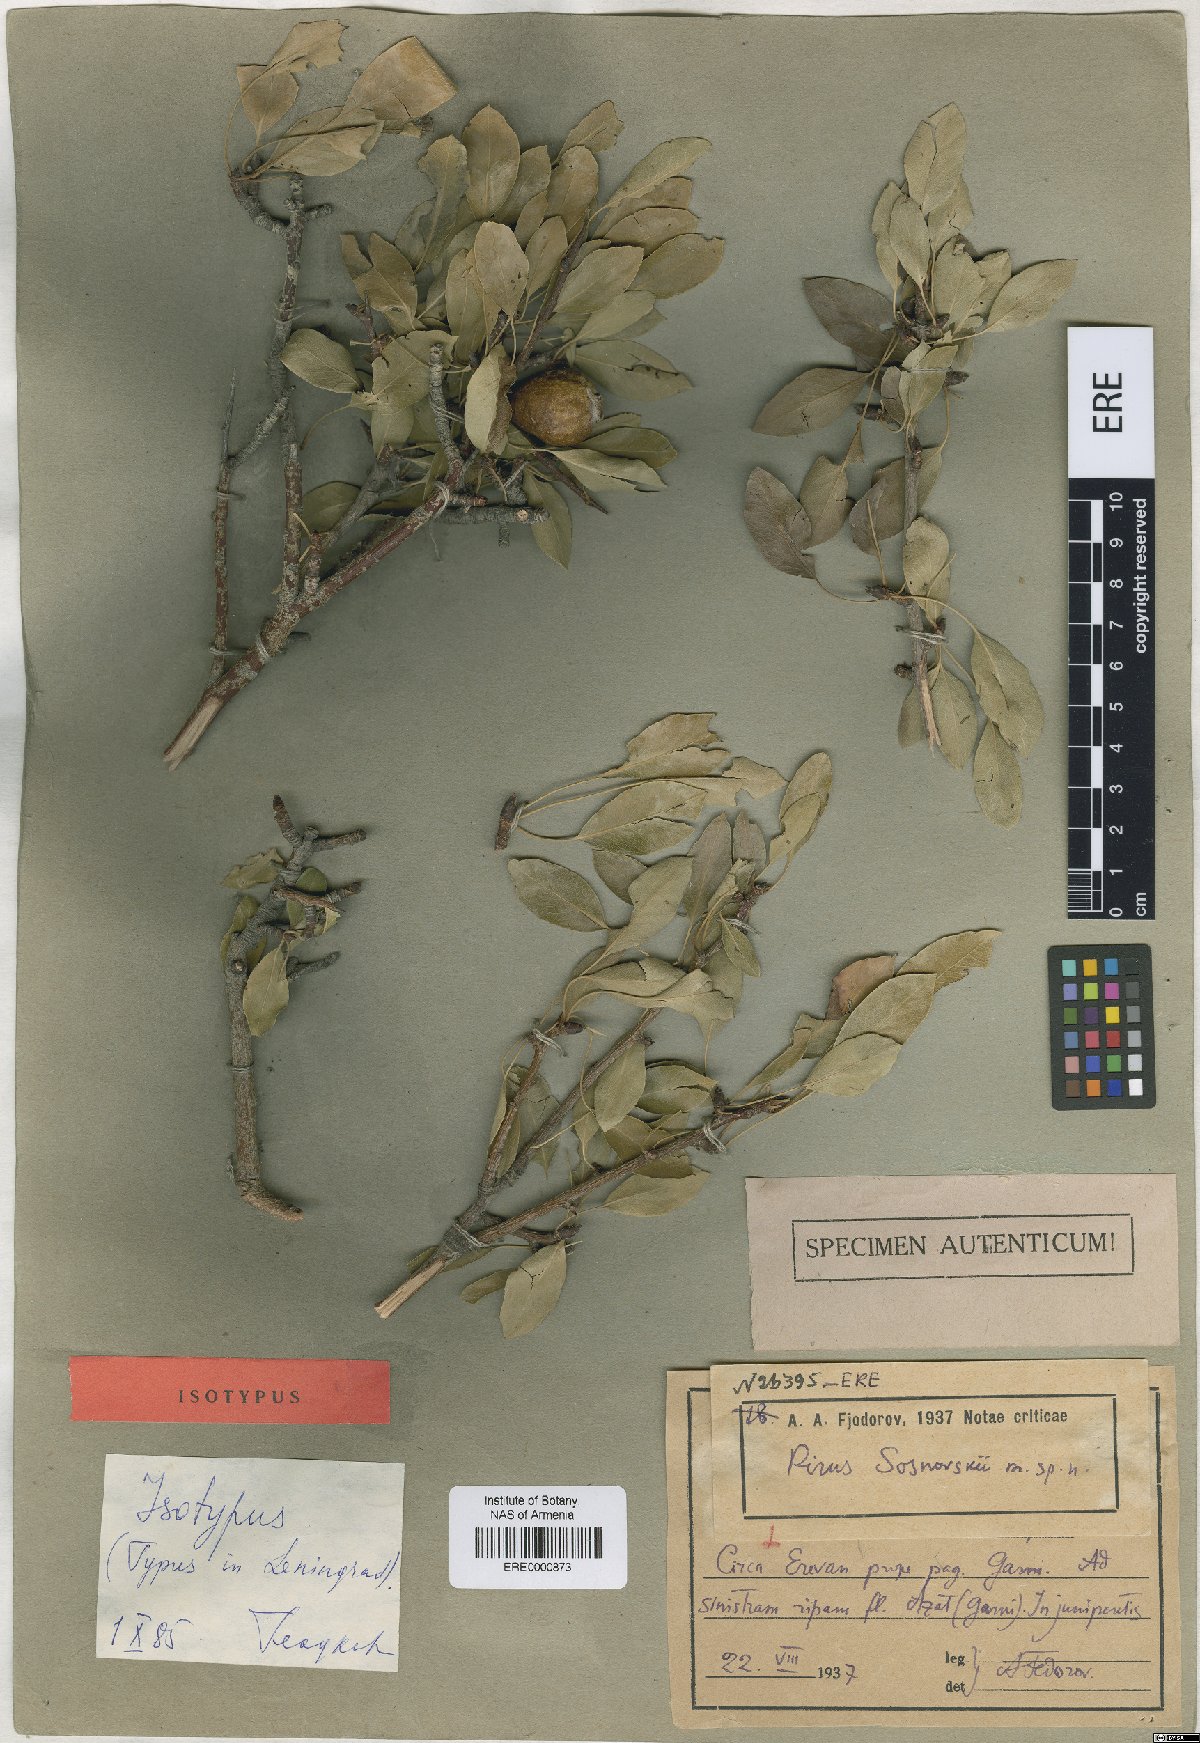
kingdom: Plantae
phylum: Tracheophyta
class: Magnoliopsida
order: Rosales
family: Rosaceae
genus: Pyrus
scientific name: Pyrus communis
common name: Pear
